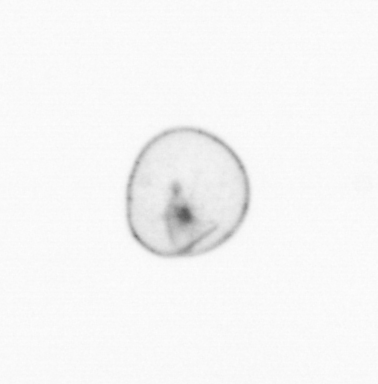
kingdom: Chromista
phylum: Myzozoa
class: Dinophyceae
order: Noctilucales
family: Noctilucaceae
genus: Noctiluca
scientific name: Noctiluca scintillans
